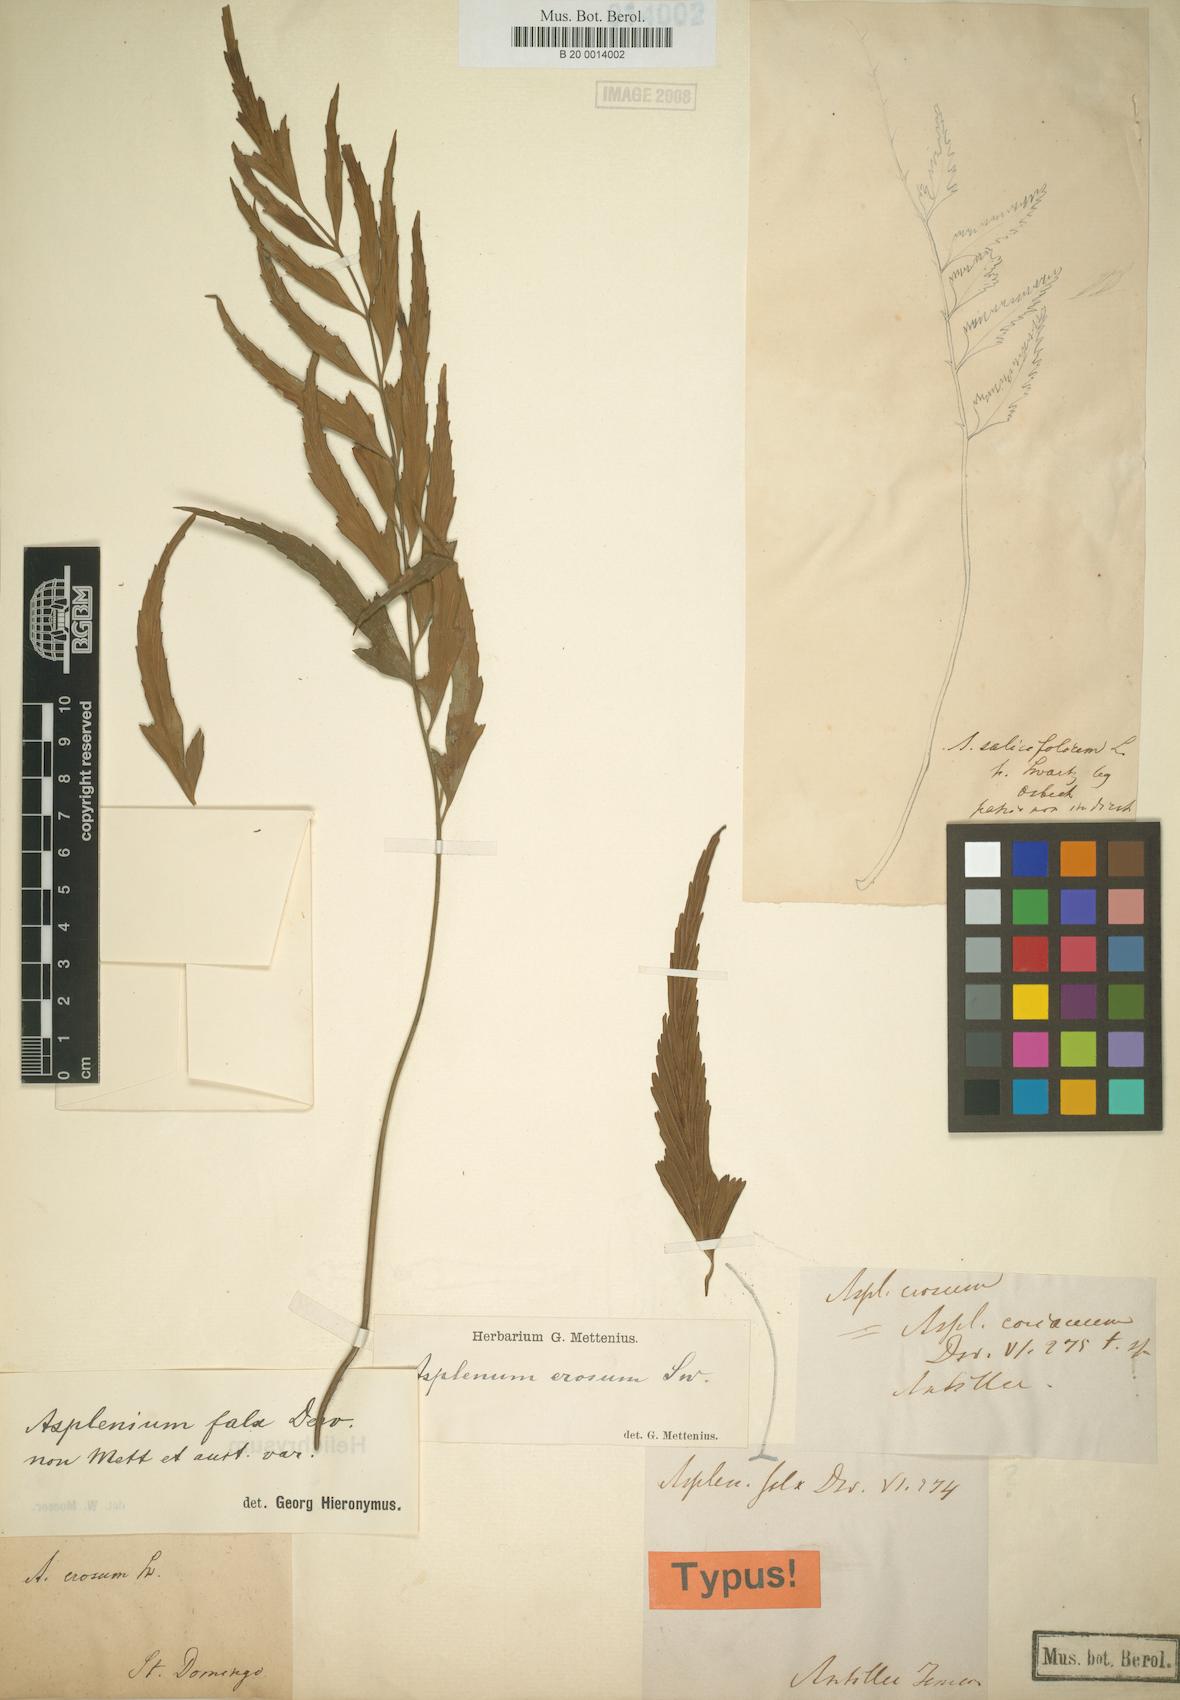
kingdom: Plantae
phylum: Tracheophyta
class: Polypodiopsida
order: Polypodiales
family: Aspleniaceae
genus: Asplenium
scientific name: Asplenium erosum
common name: Eared spleenwort
